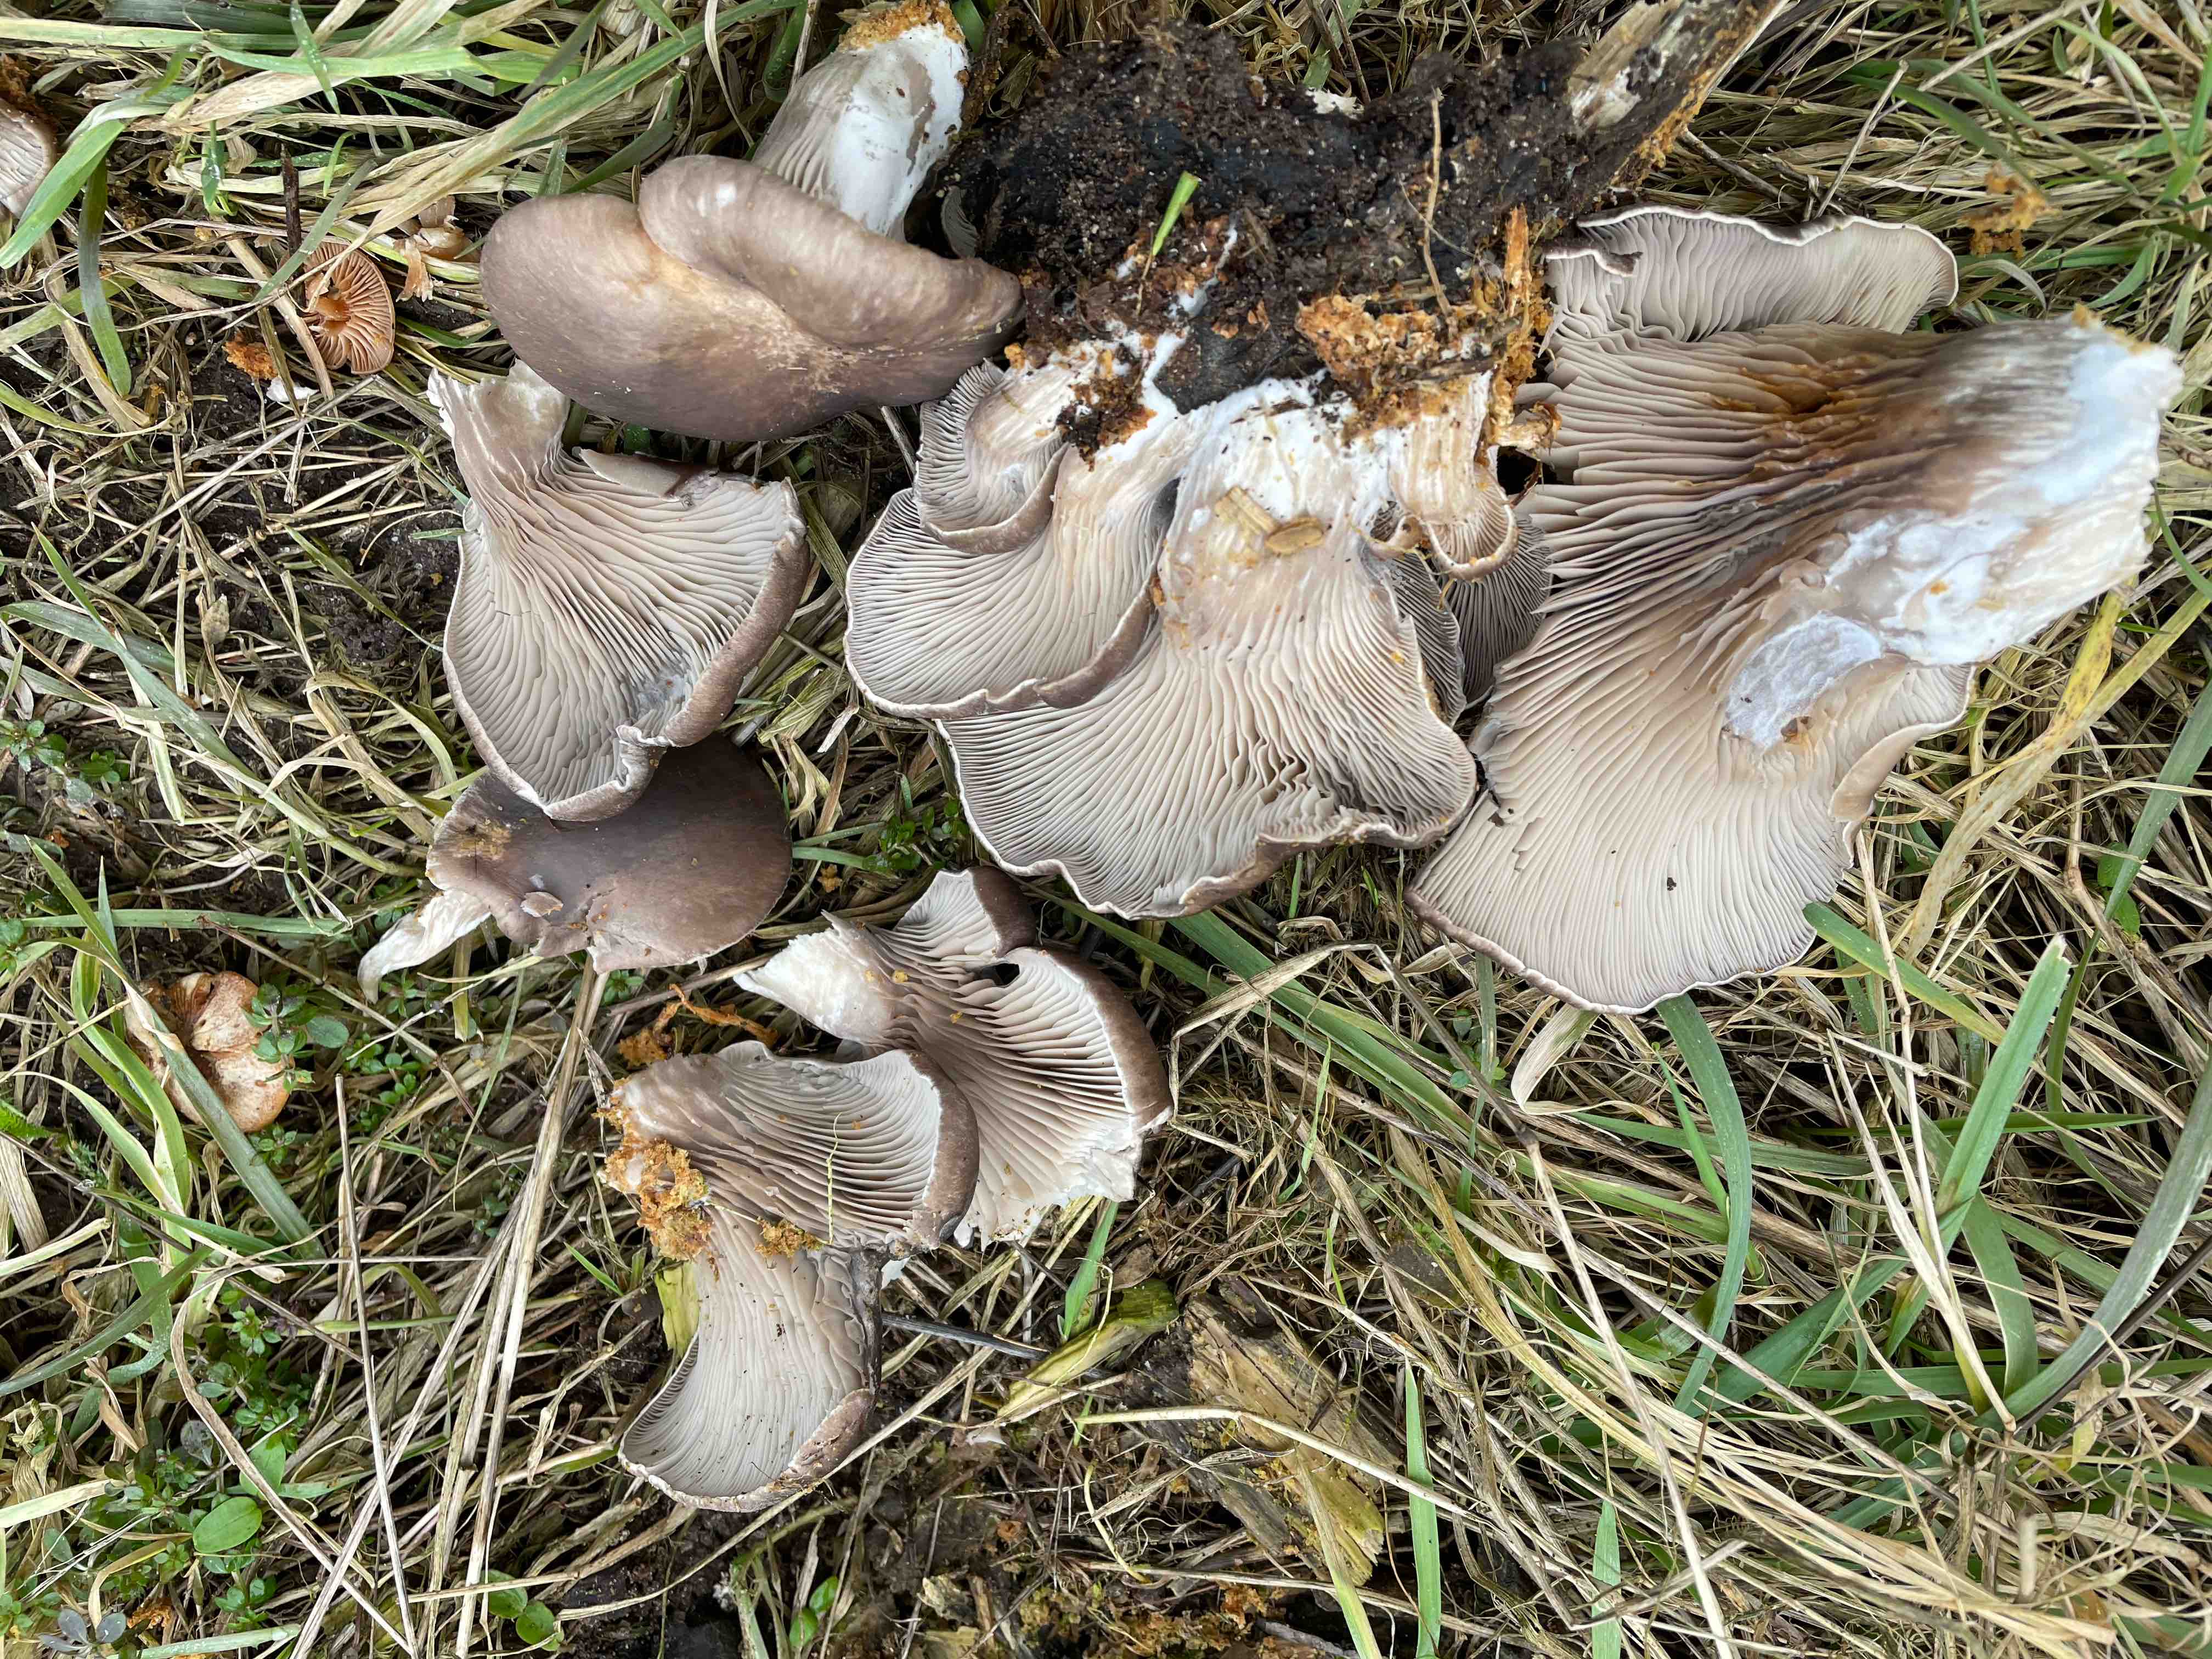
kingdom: Fungi
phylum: Basidiomycota
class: Agaricomycetes
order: Agaricales
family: Pleurotaceae
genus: Pleurotus
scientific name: Pleurotus ostreatus
